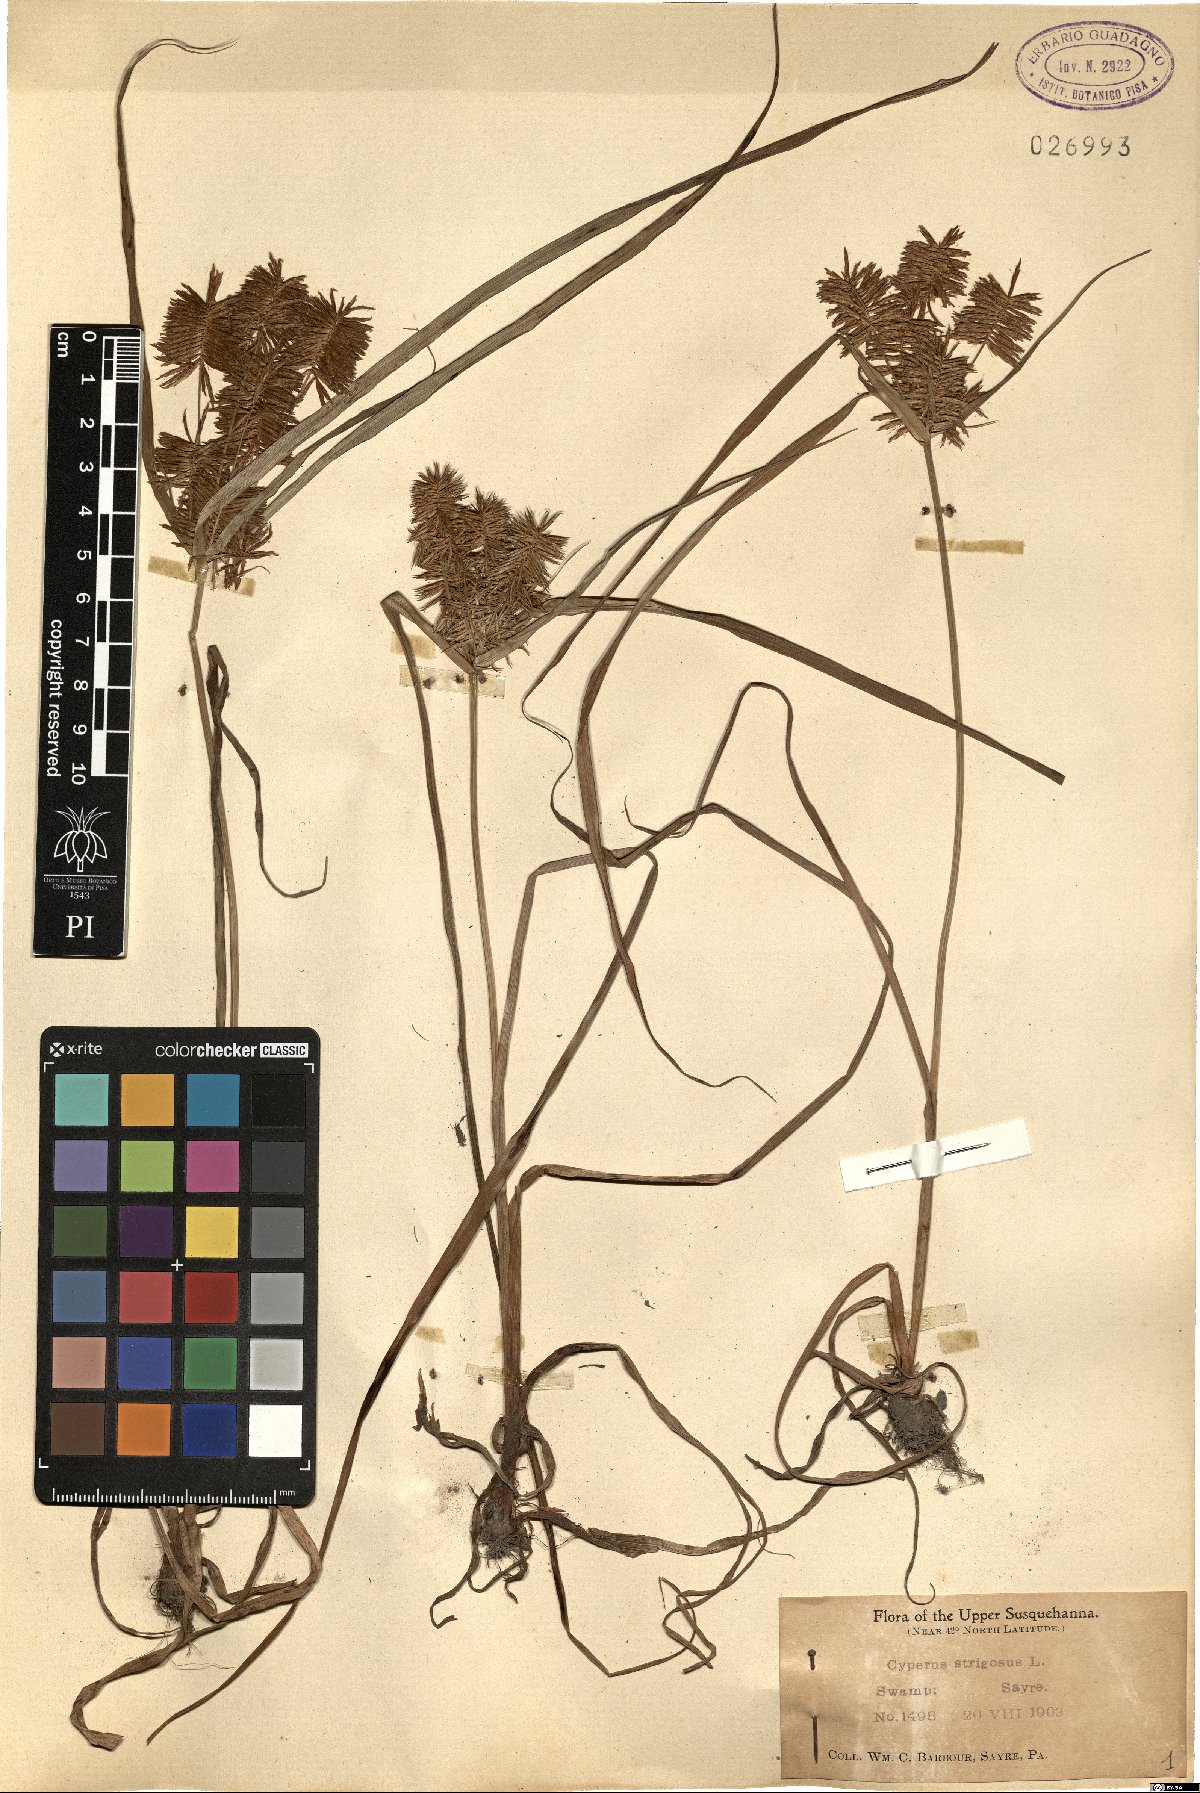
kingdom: Plantae
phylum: Tracheophyta
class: Liliopsida
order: Poales
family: Cyperaceae
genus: Cyperus
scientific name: Cyperus strigosus
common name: False nutsedge
